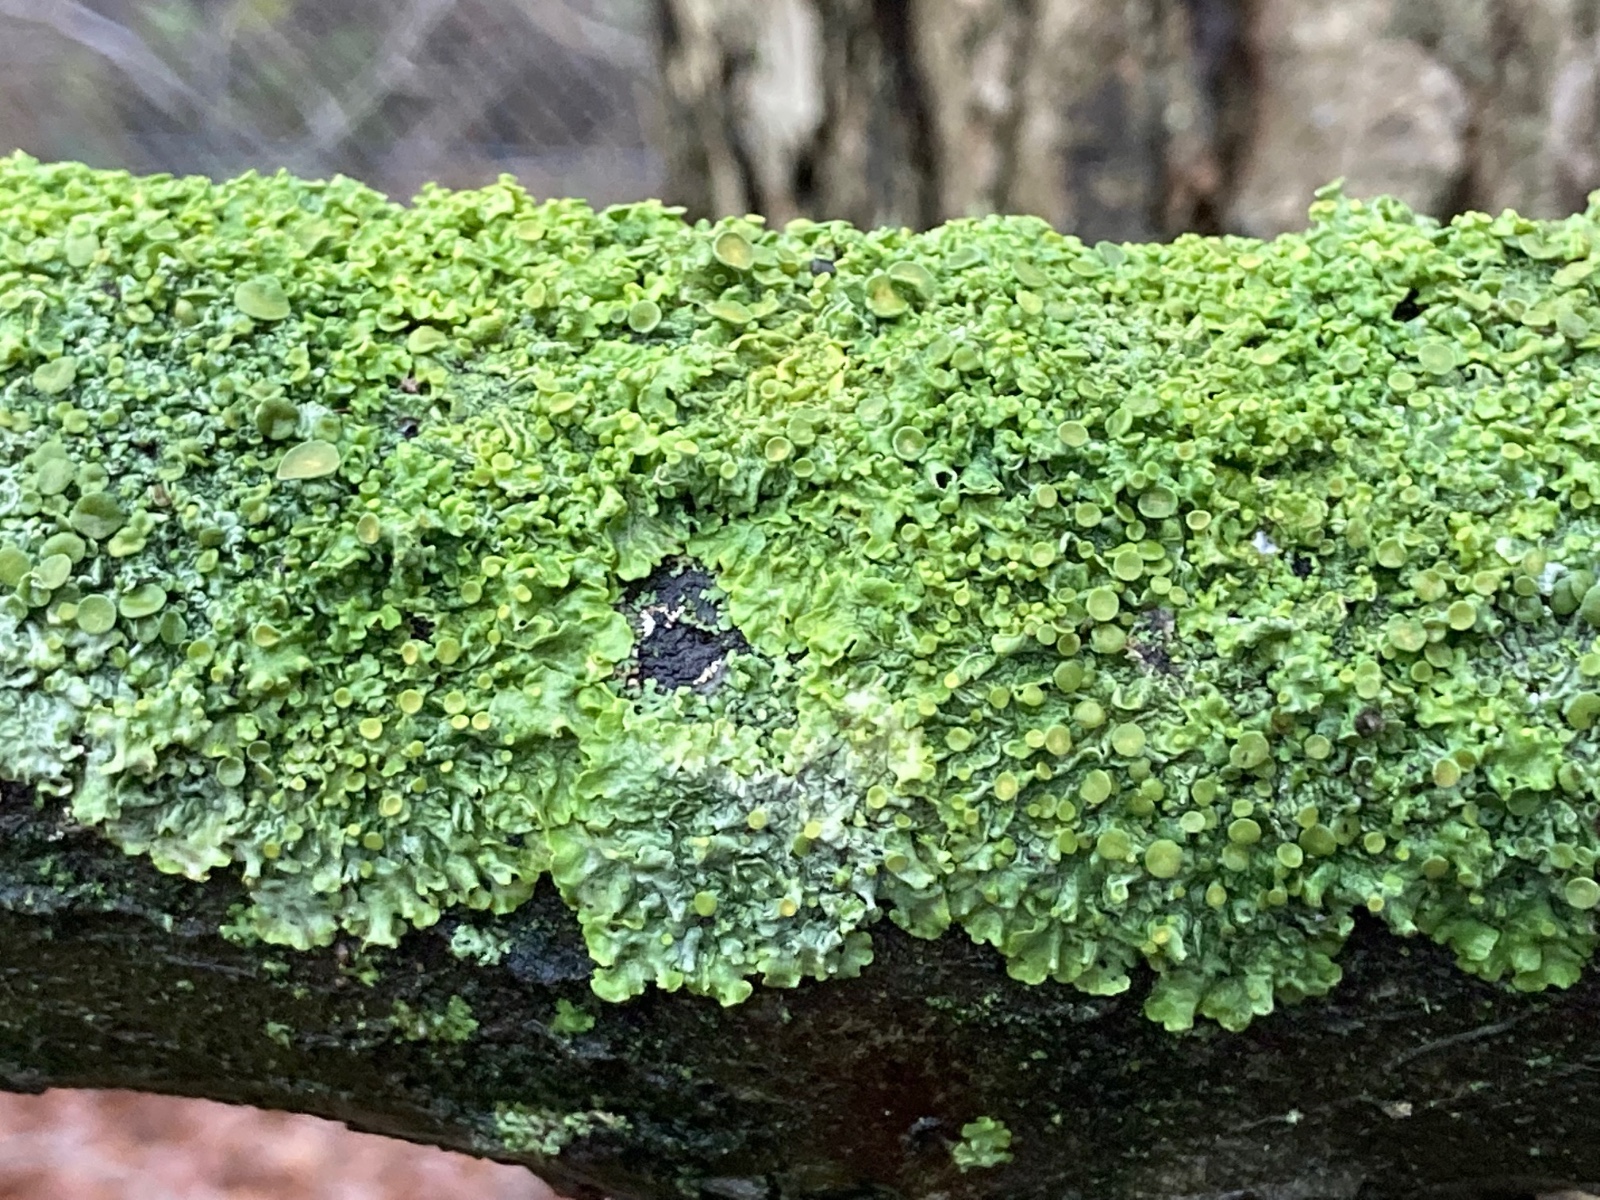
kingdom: Fungi
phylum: Ascomycota
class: Lecanoromycetes
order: Teloschistales
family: Teloschistaceae
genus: Xanthoria
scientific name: Xanthoria parietina
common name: almindelig væggelav
